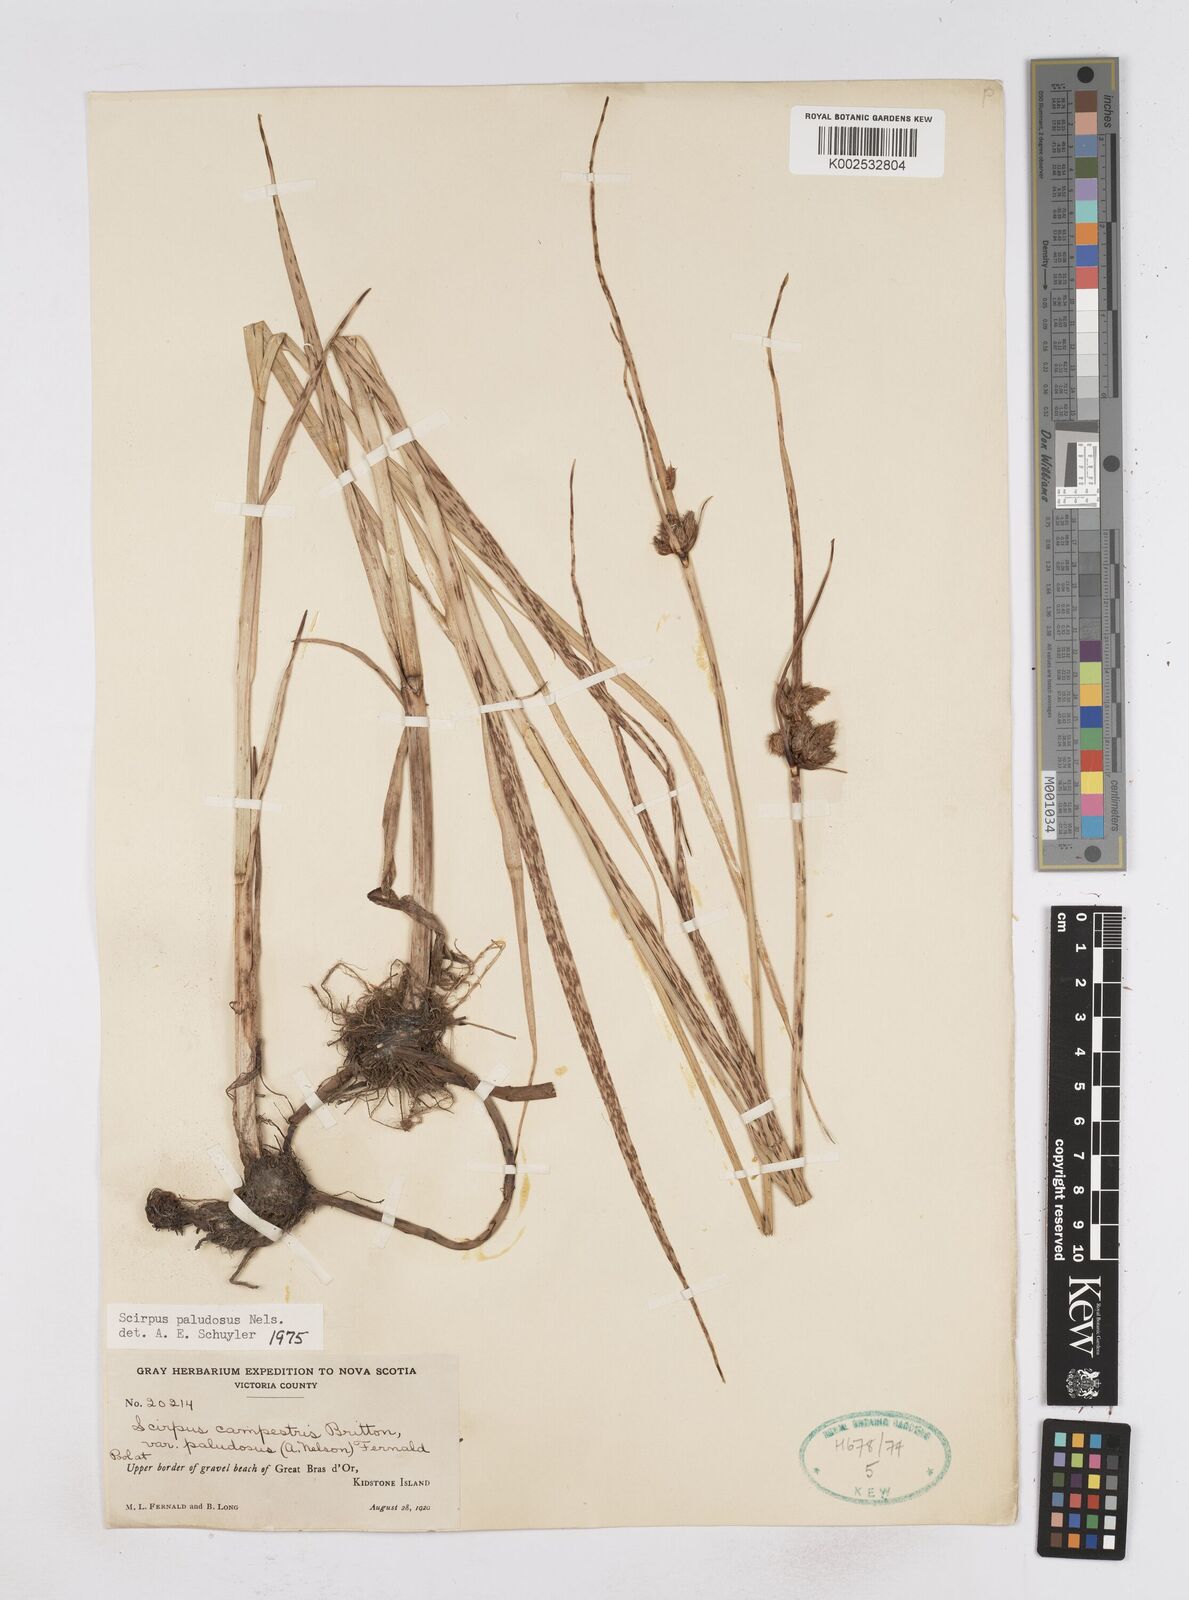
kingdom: Plantae
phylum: Tracheophyta
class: Liliopsida
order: Poales
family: Cyperaceae
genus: Bolboschoenus
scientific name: Bolboschoenus maritimus
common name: Sea club-rush
